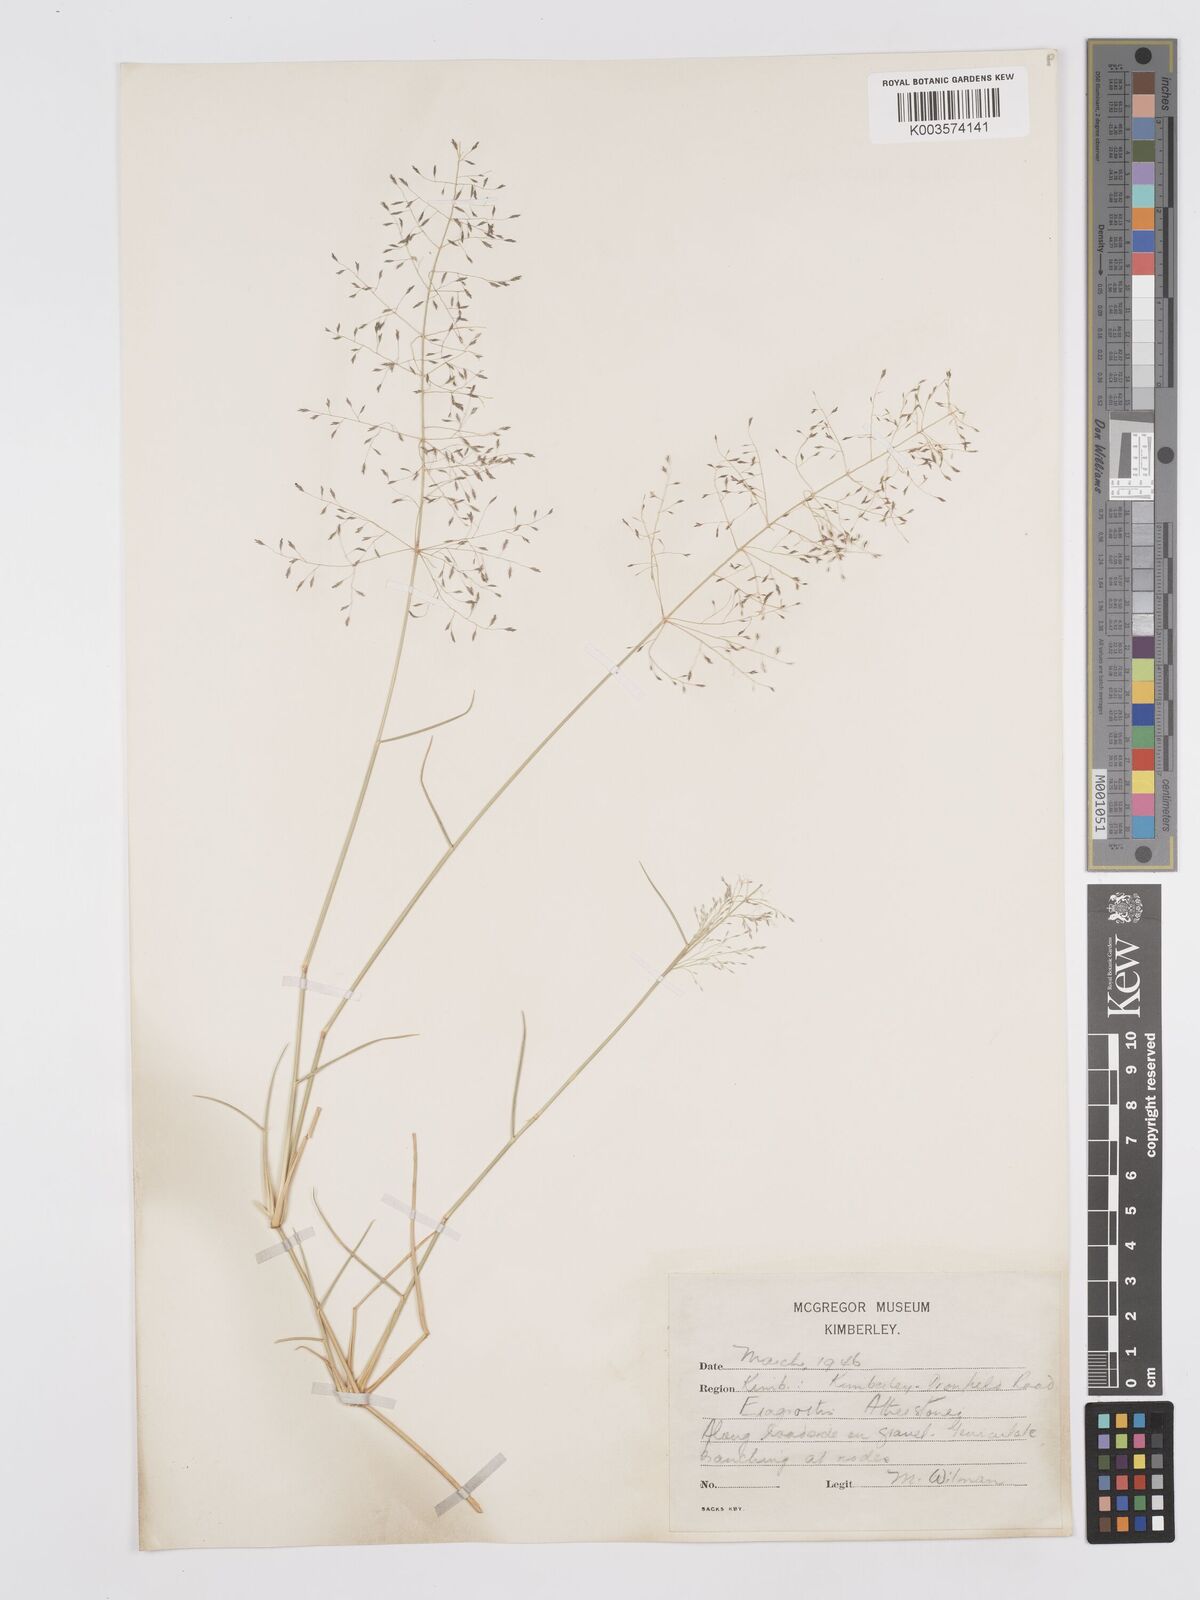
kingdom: Plantae
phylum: Tracheophyta
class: Liliopsida
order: Poales
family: Poaceae
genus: Eragrostis
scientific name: Eragrostis cylindriflora
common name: Cylinderflower lovegrass
